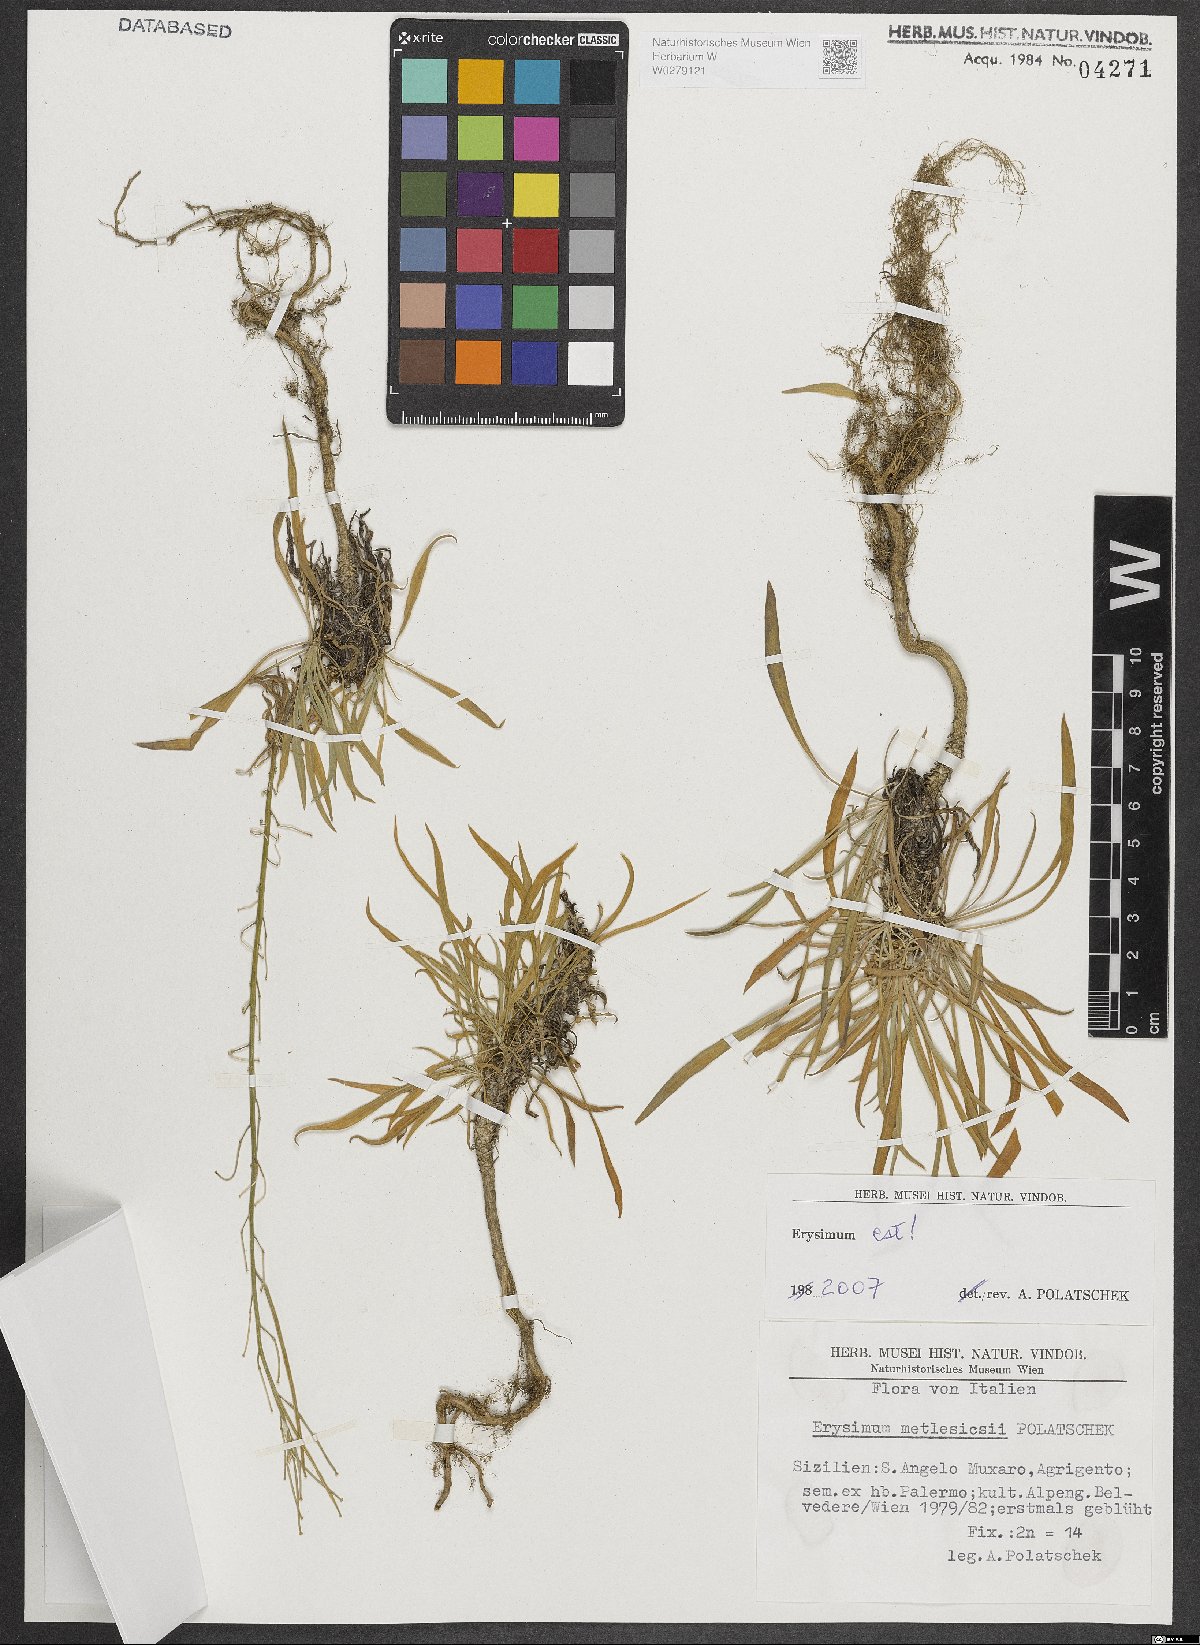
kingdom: Plantae
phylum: Tracheophyta
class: Magnoliopsida
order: Brassicales
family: Brassicaceae
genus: Erysimum
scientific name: Erysimum metlesicsii
